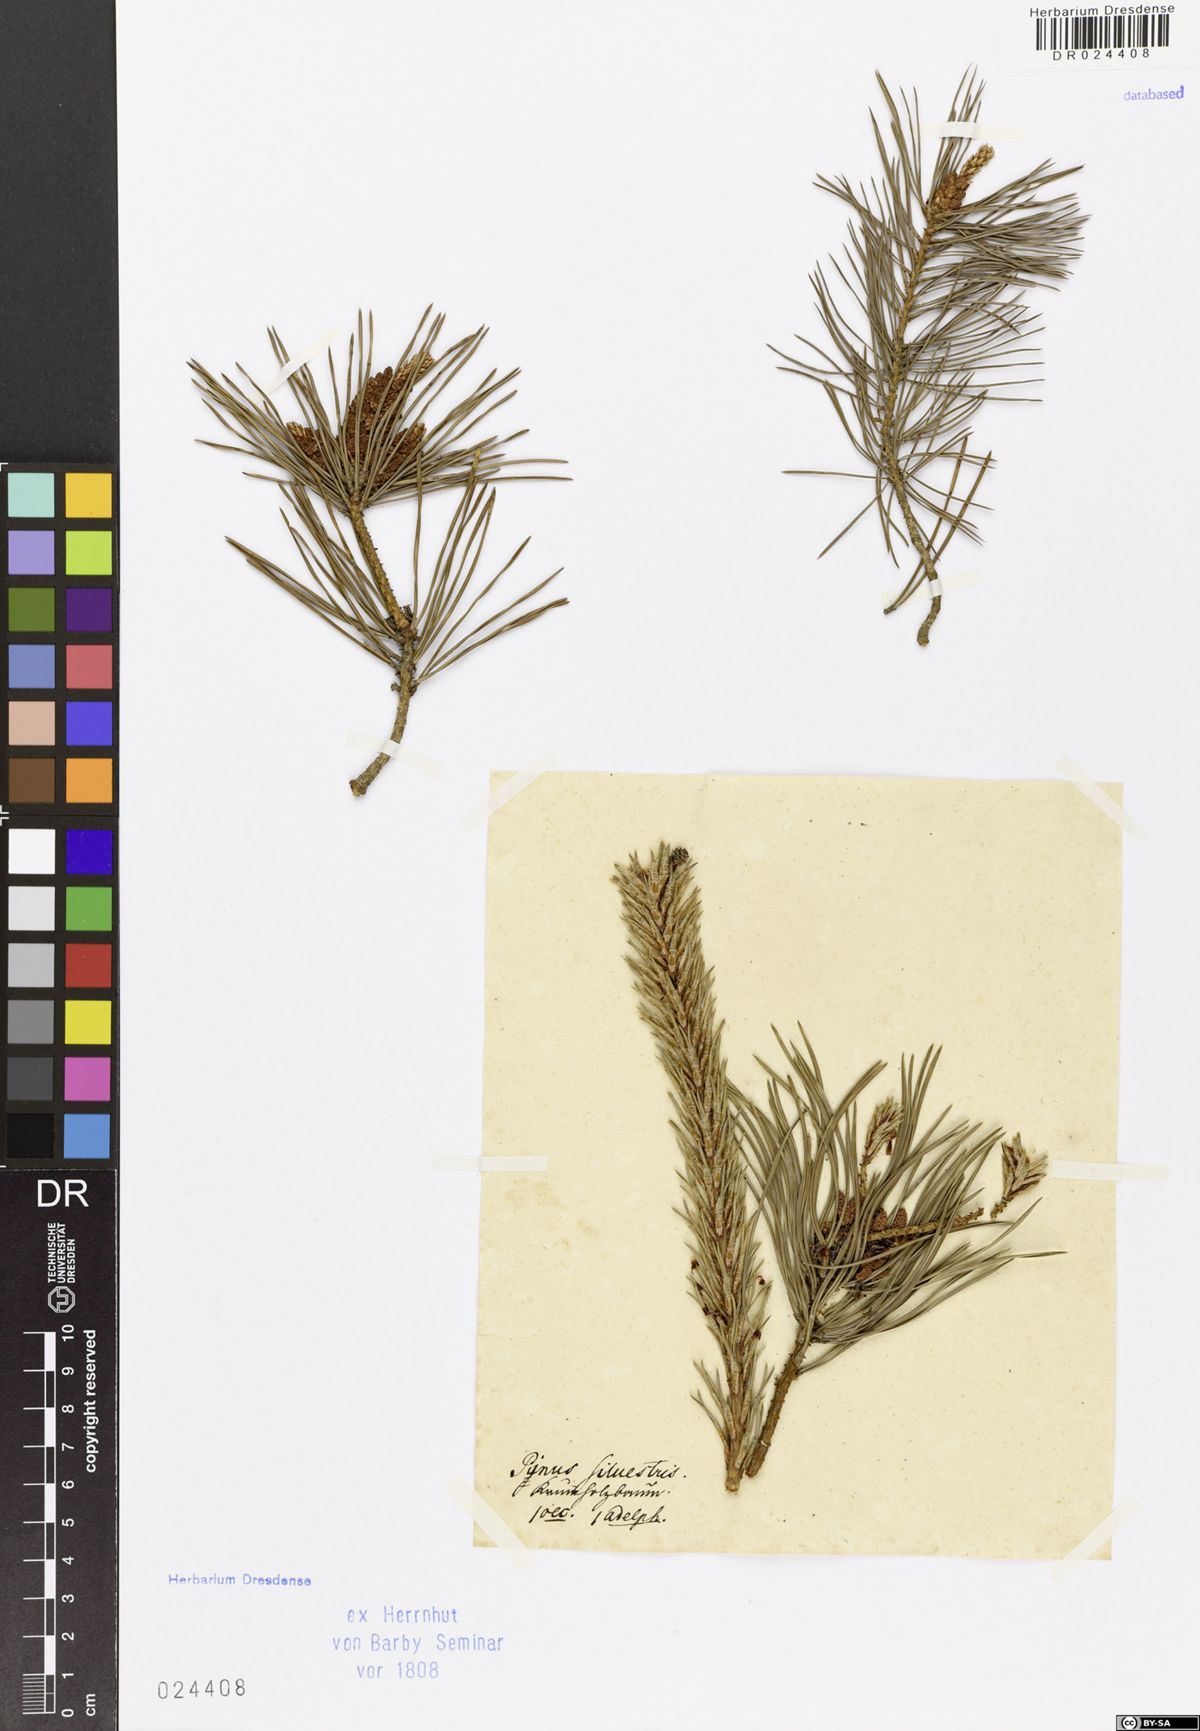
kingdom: Plantae
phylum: Tracheophyta
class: Pinopsida
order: Pinales
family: Pinaceae
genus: Pinus
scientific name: Pinus sylvestris
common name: Scots pine
